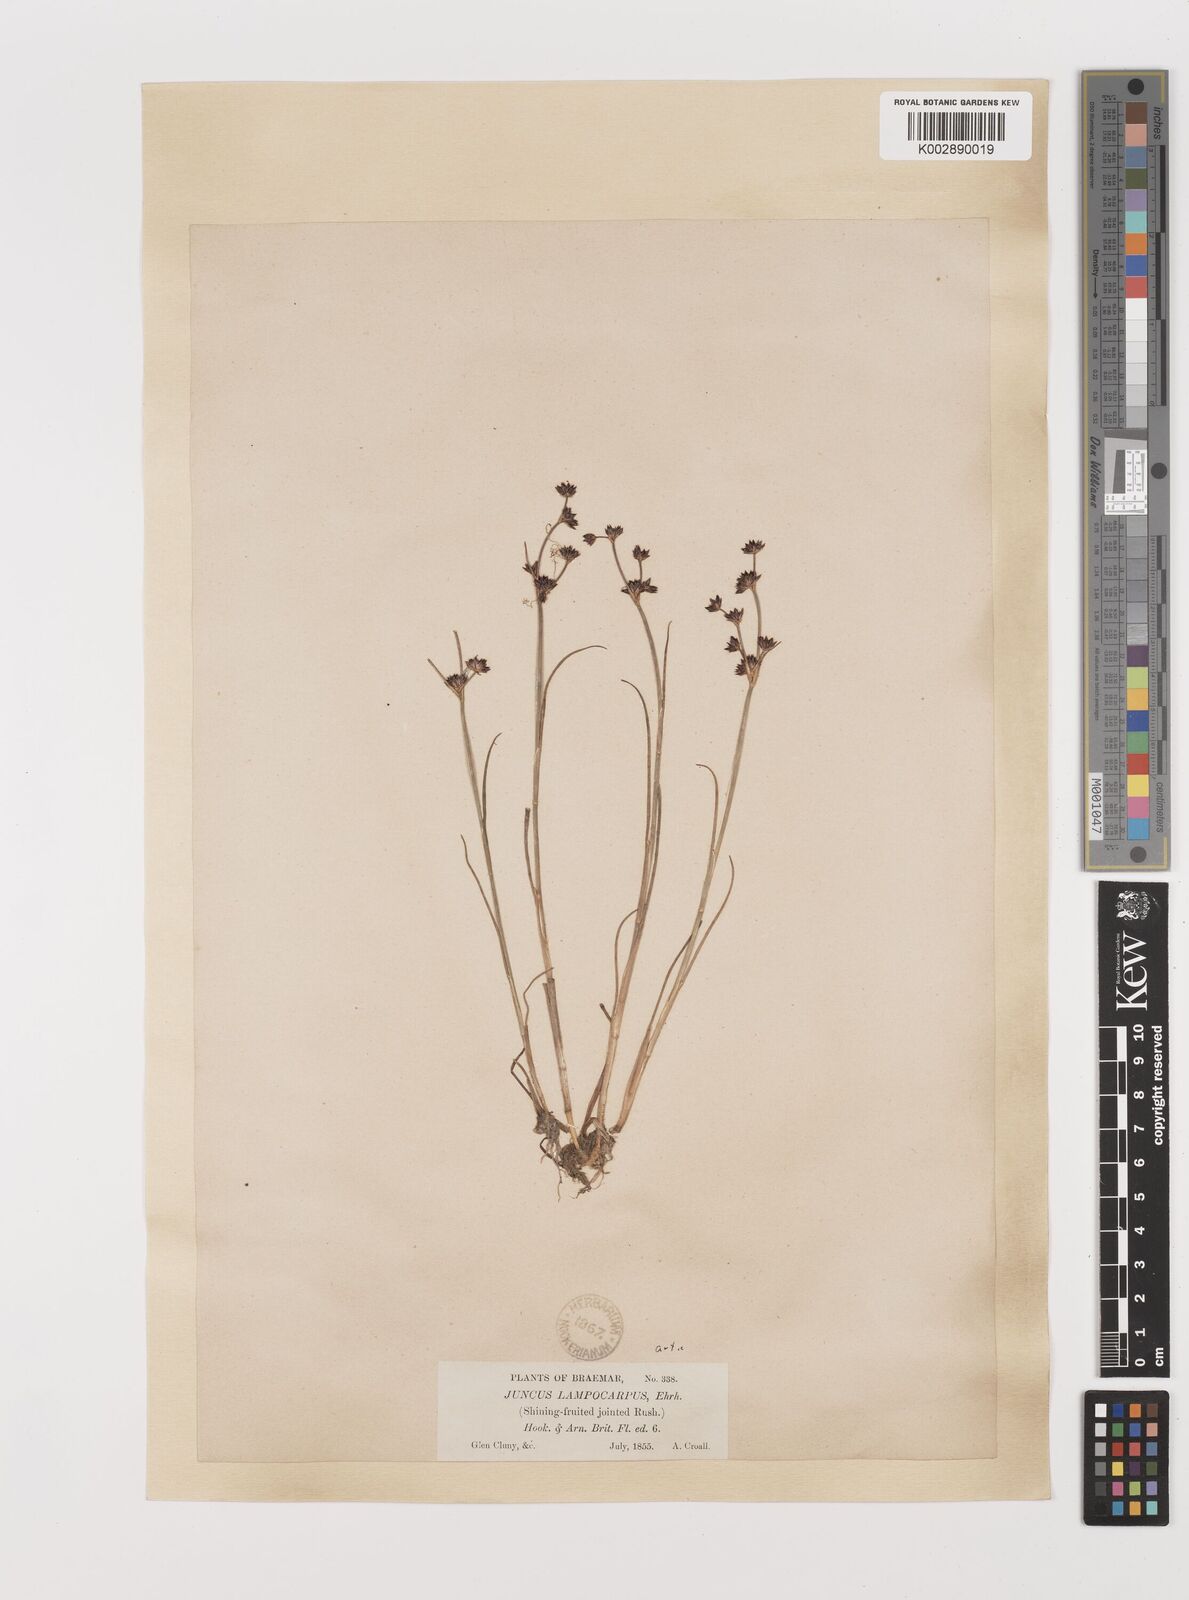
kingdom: Plantae
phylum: Tracheophyta
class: Liliopsida
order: Poales
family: Juncaceae
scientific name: Juncaceae
